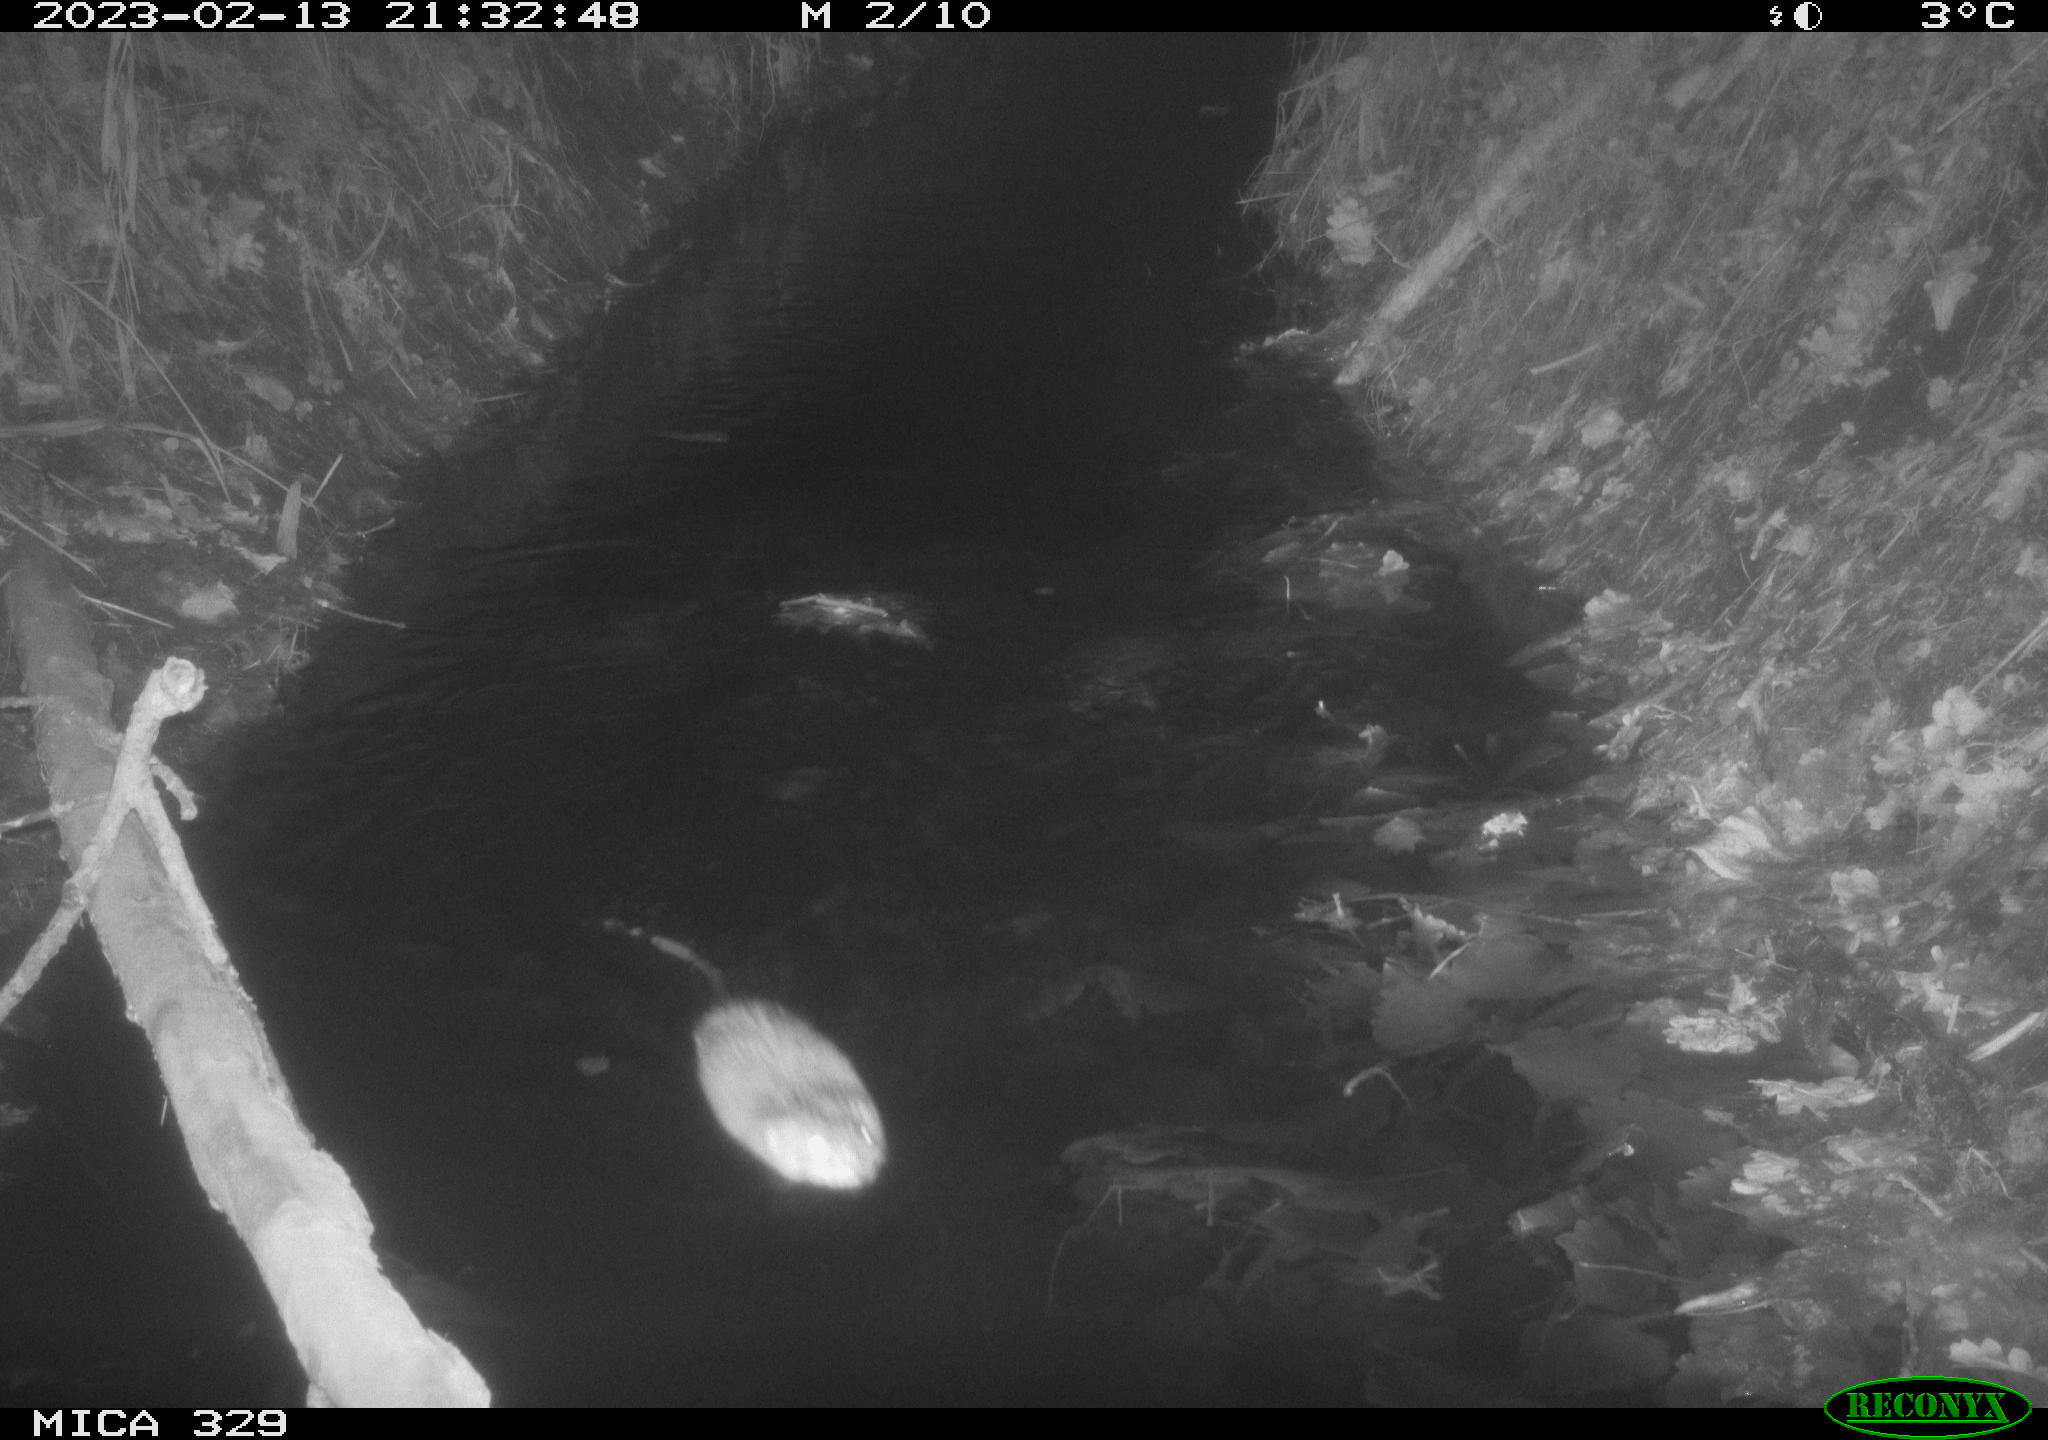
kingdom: Animalia
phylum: Chordata
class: Mammalia
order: Rodentia
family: Cricetidae
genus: Ondatra
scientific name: Ondatra zibethicus
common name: Muskrat
